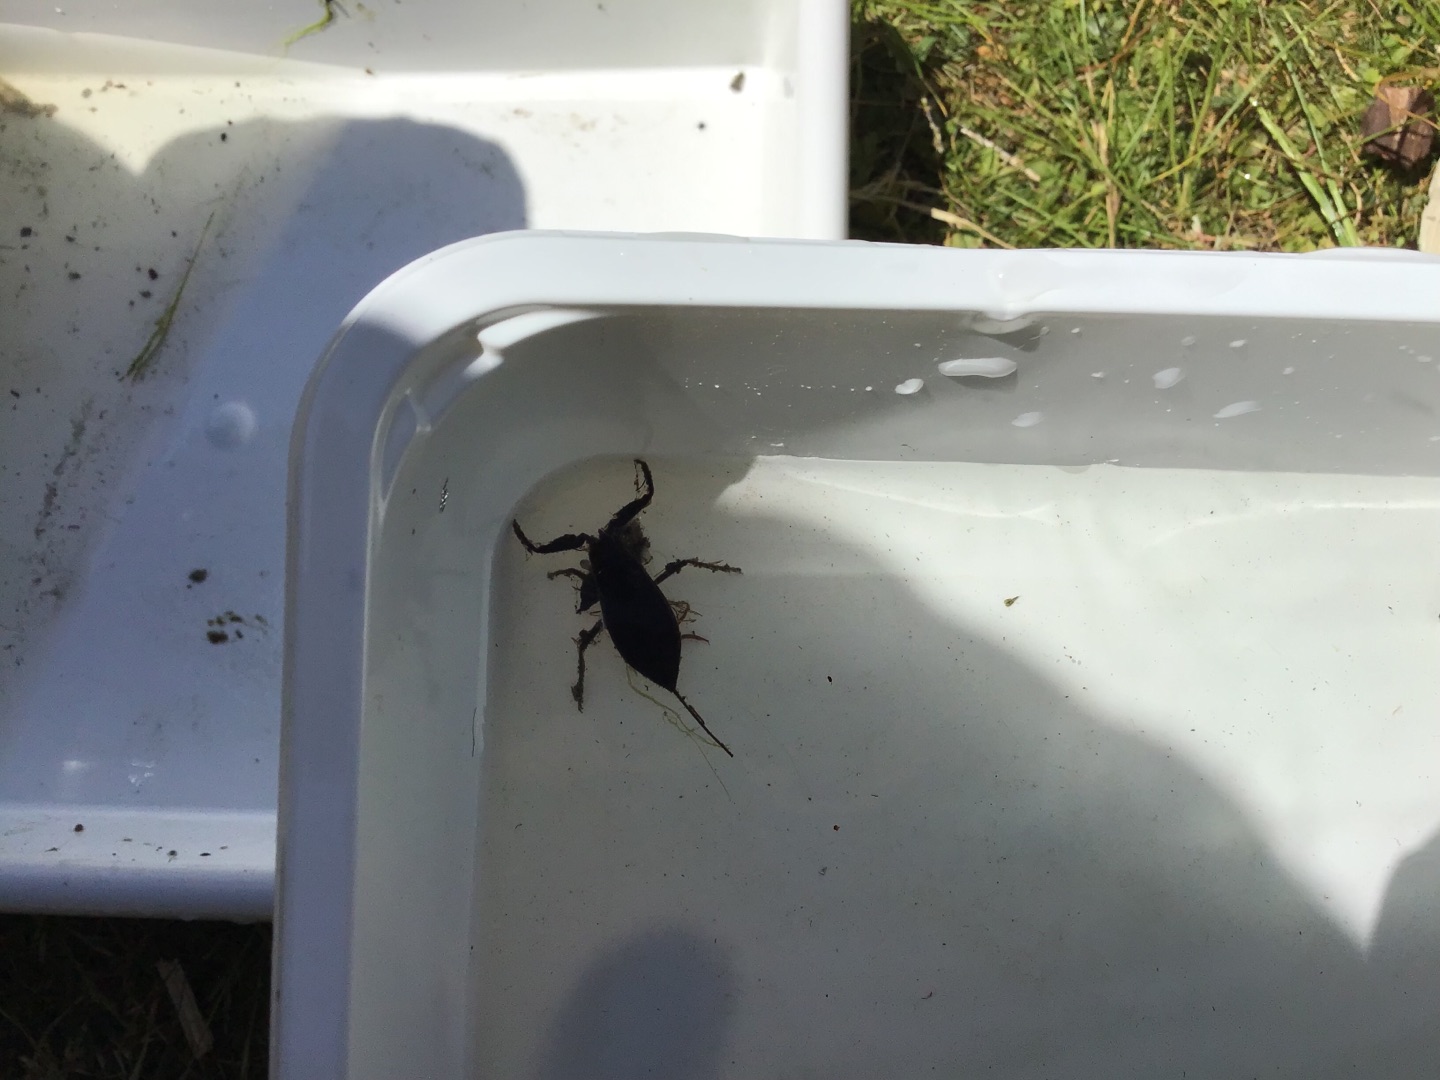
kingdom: Animalia
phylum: Arthropoda
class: Insecta
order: Hemiptera
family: Nepidae
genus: Nepa
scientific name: Nepa cinerea
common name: Skorpiontæge
